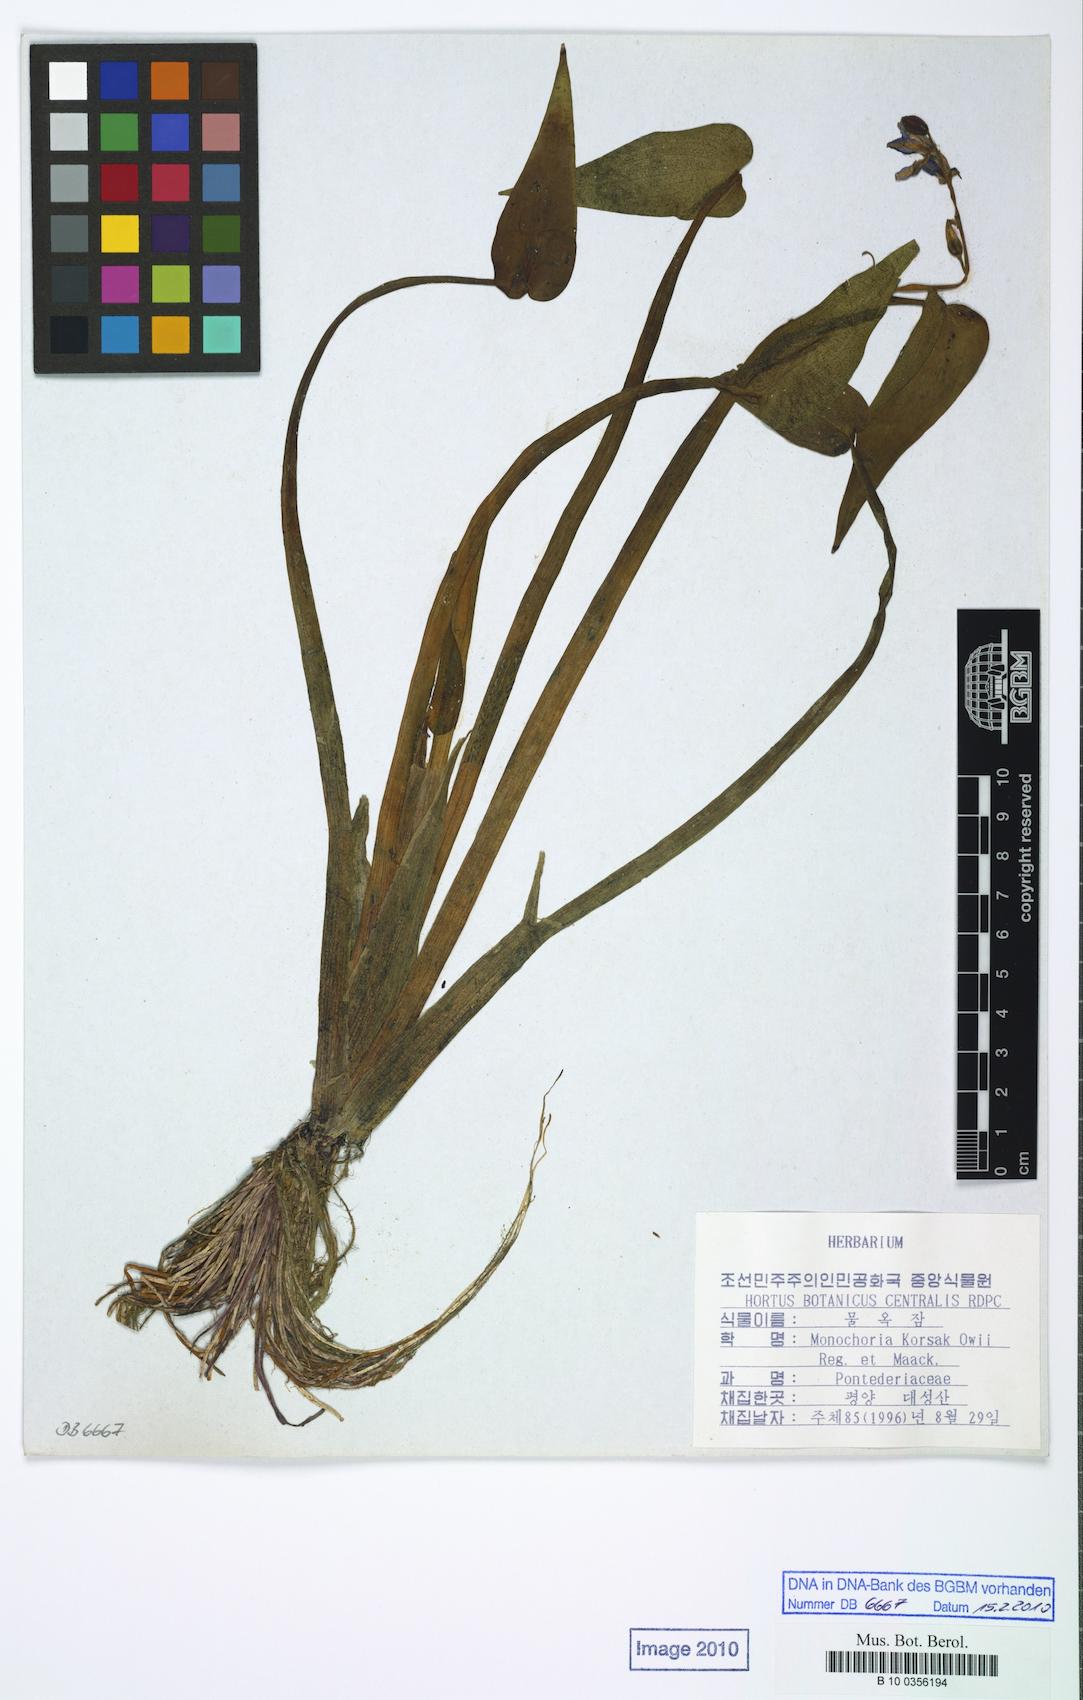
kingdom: Plantae
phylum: Tracheophyta
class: Liliopsida
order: Commelinales
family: Pontederiaceae
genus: Pontederia
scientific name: Pontederia korsakowii
